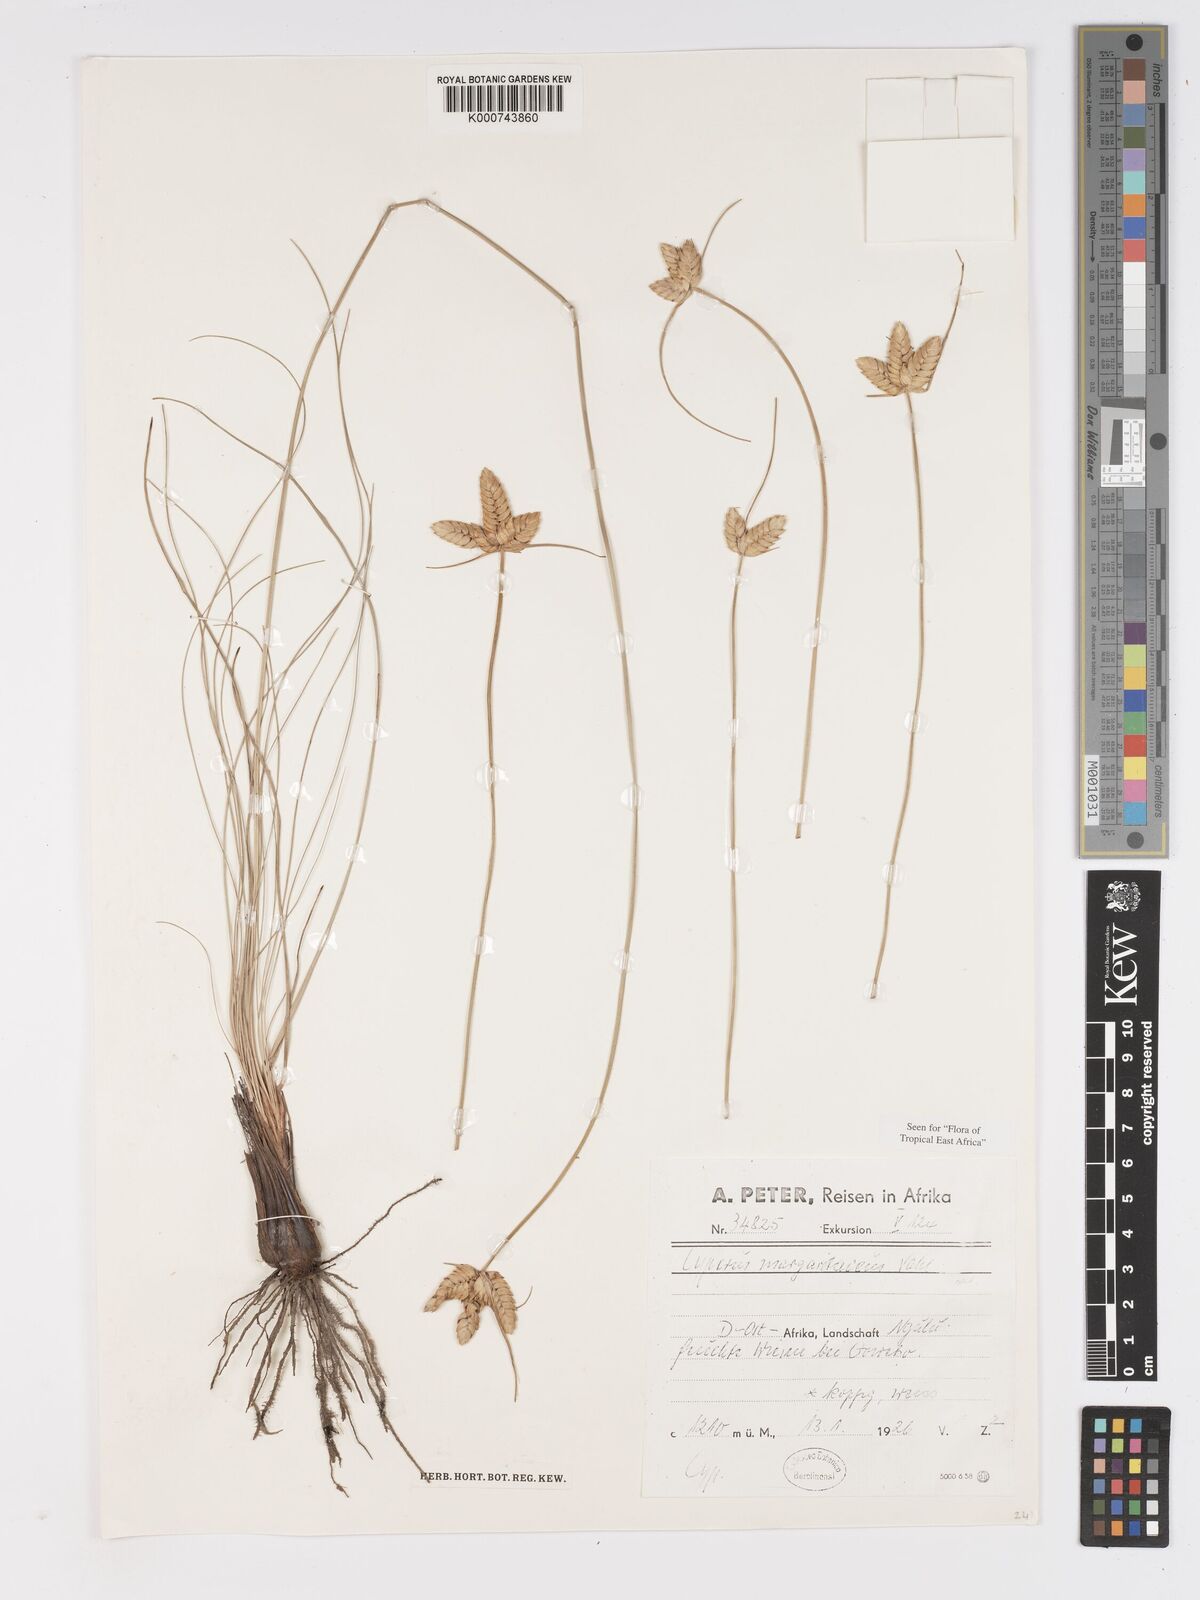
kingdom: Plantae
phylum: Tracheophyta
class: Liliopsida
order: Poales
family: Cyperaceae
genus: Cyperus
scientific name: Cyperus margaritaceus
